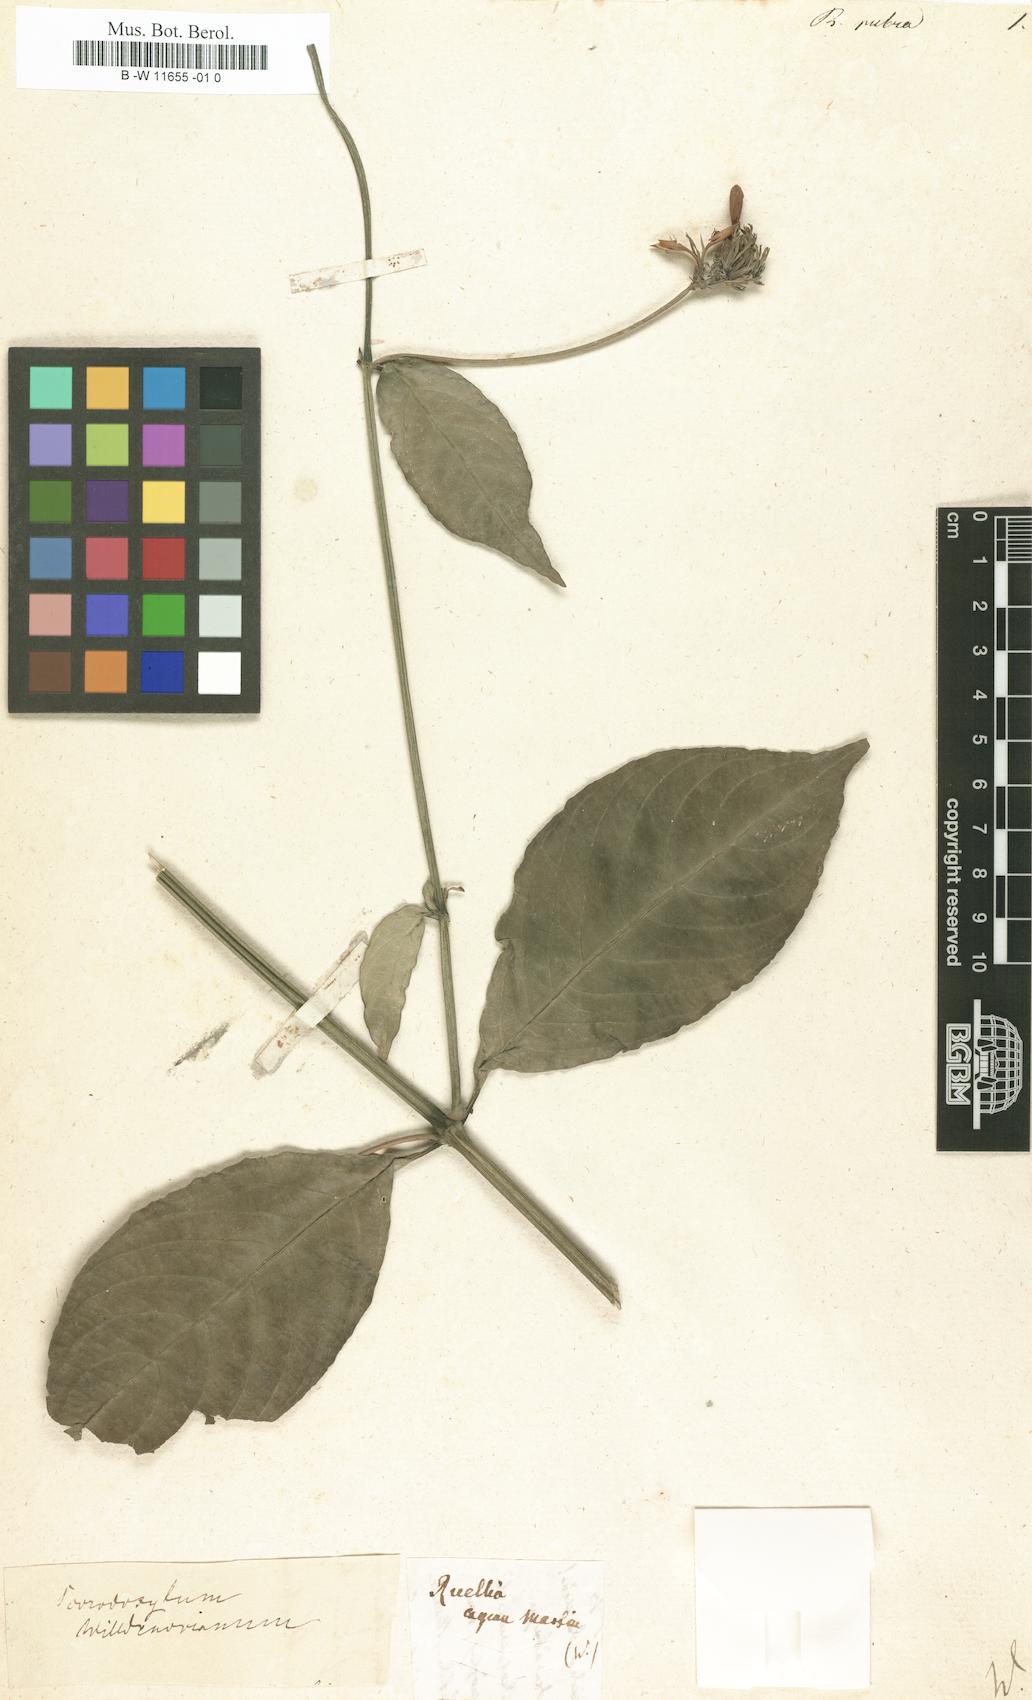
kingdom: Plantae
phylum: Tracheophyta
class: Magnoliopsida
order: Lamiales
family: Acanthaceae
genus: Ruellia
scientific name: Ruellia rubra
